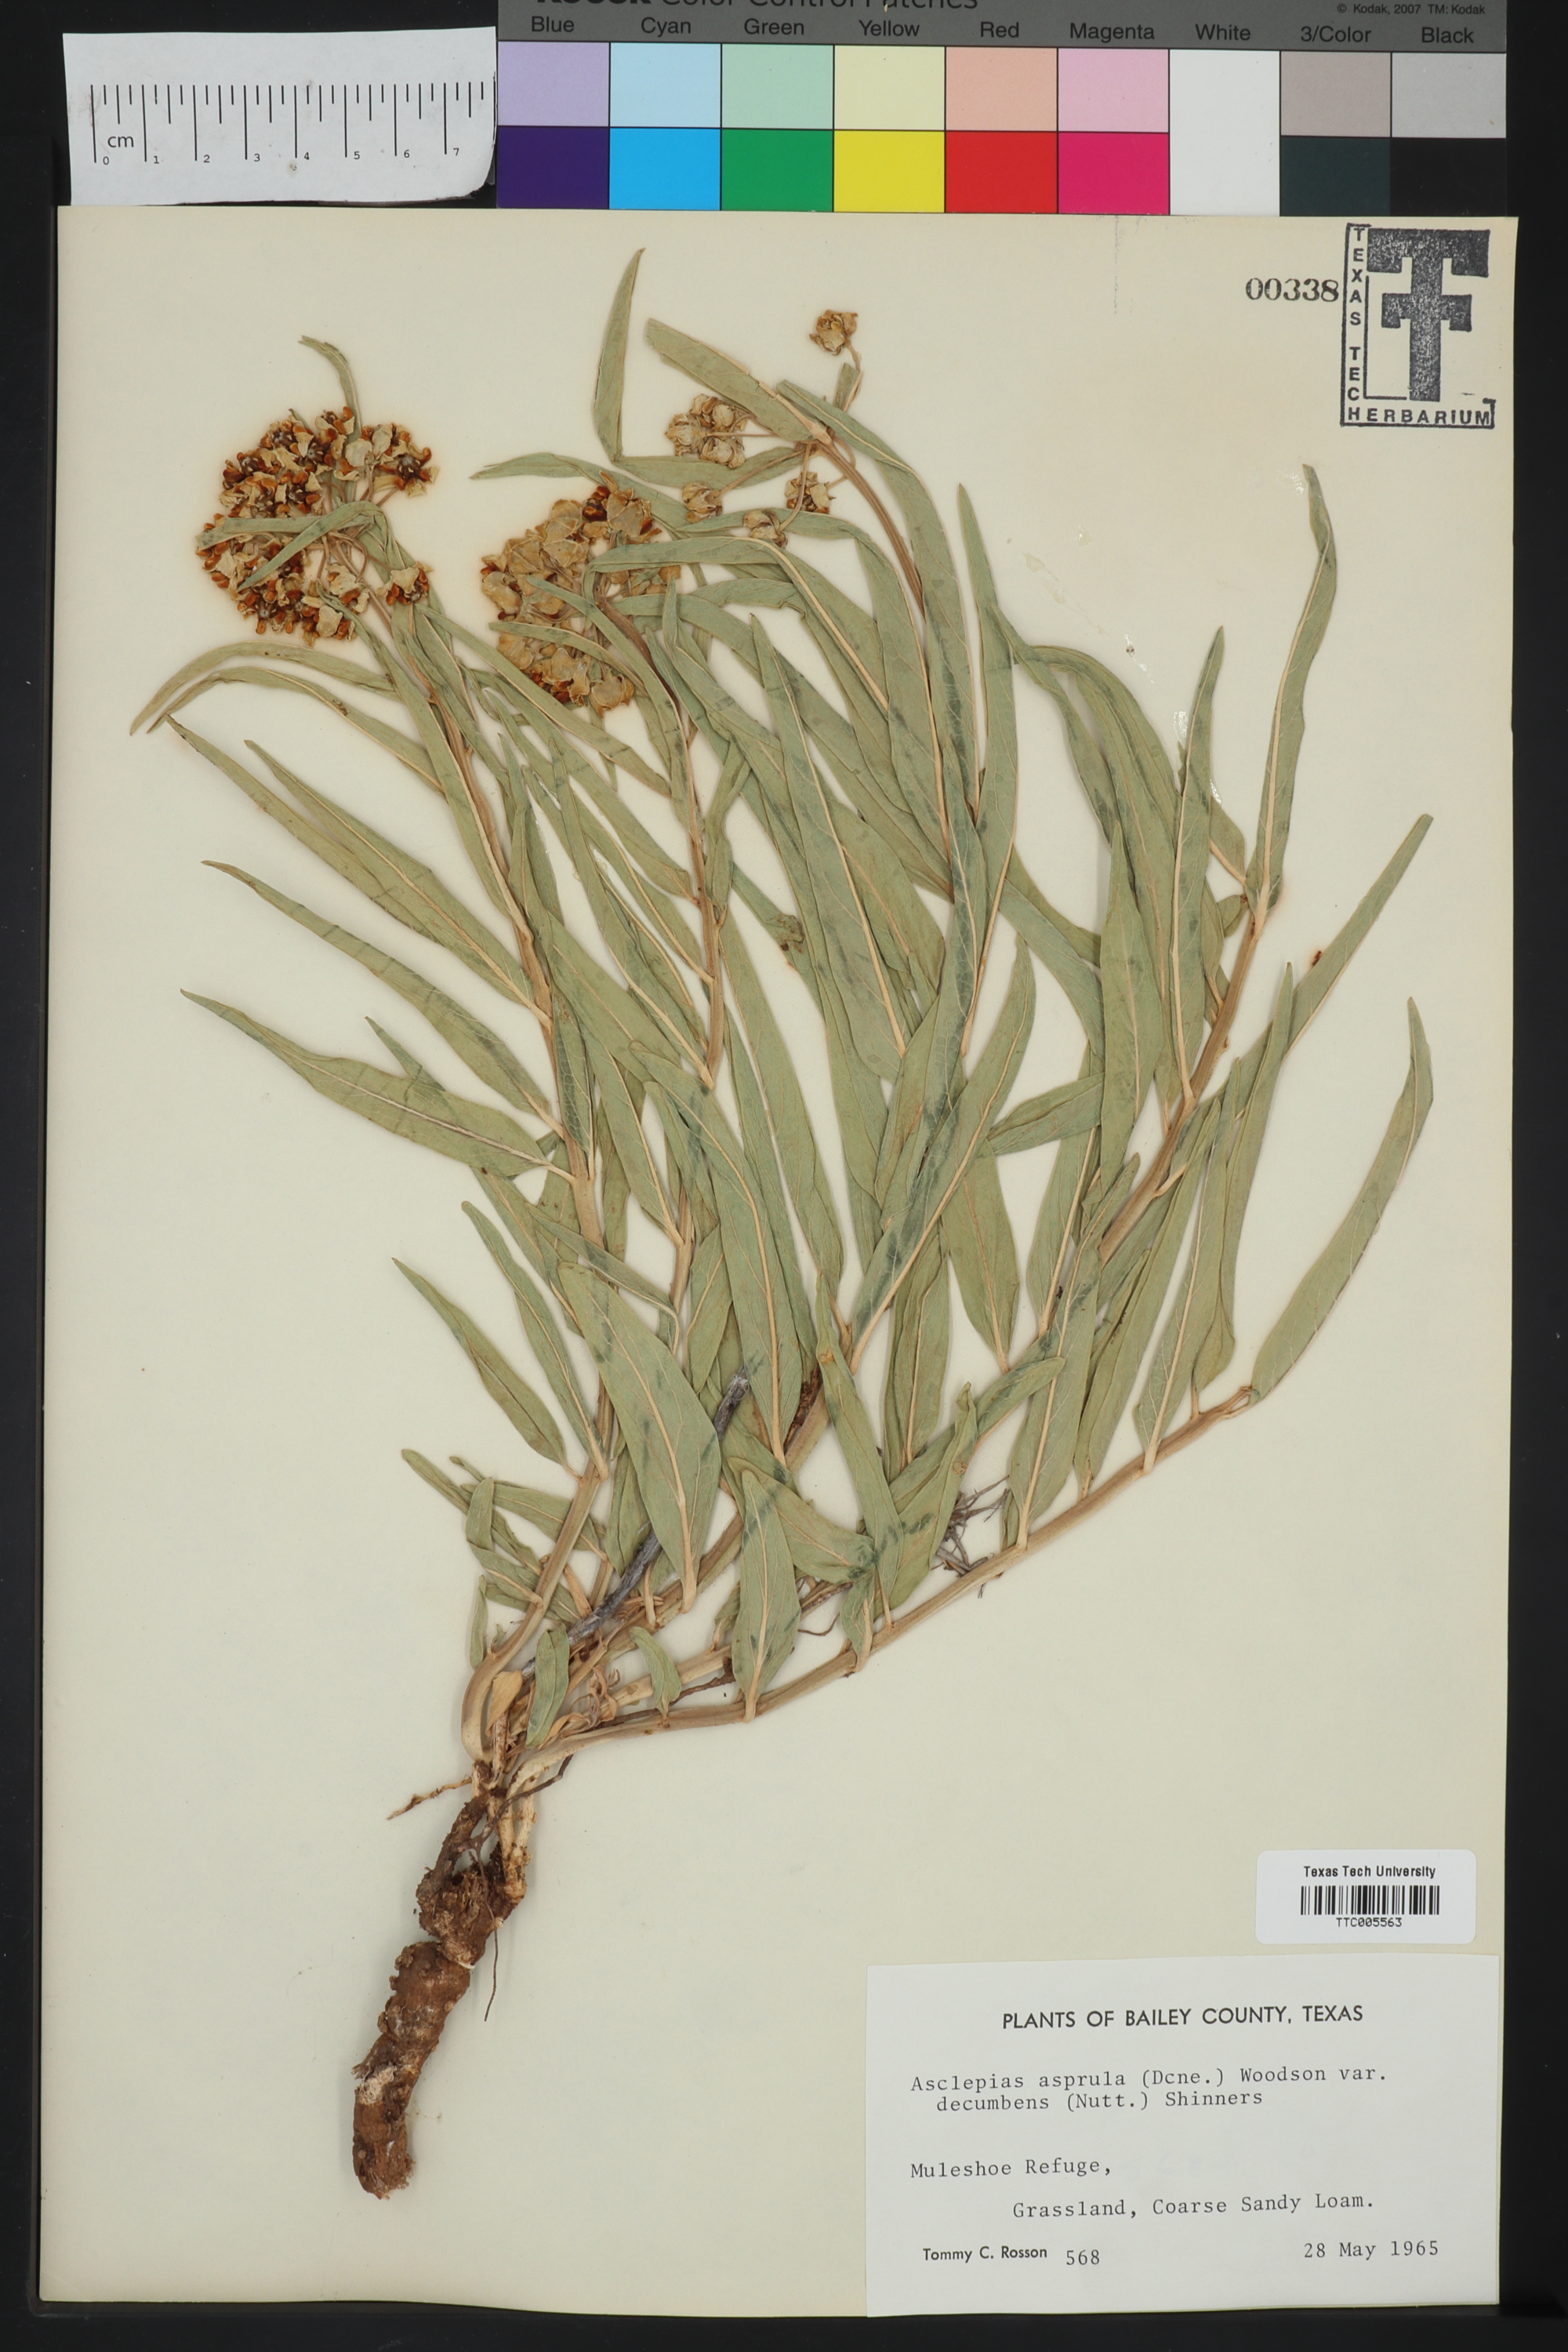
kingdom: Plantae
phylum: Tracheophyta
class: Magnoliopsida
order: Gentianales
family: Apocynaceae
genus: Asclepias
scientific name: Asclepias asperula
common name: Antelope horns
